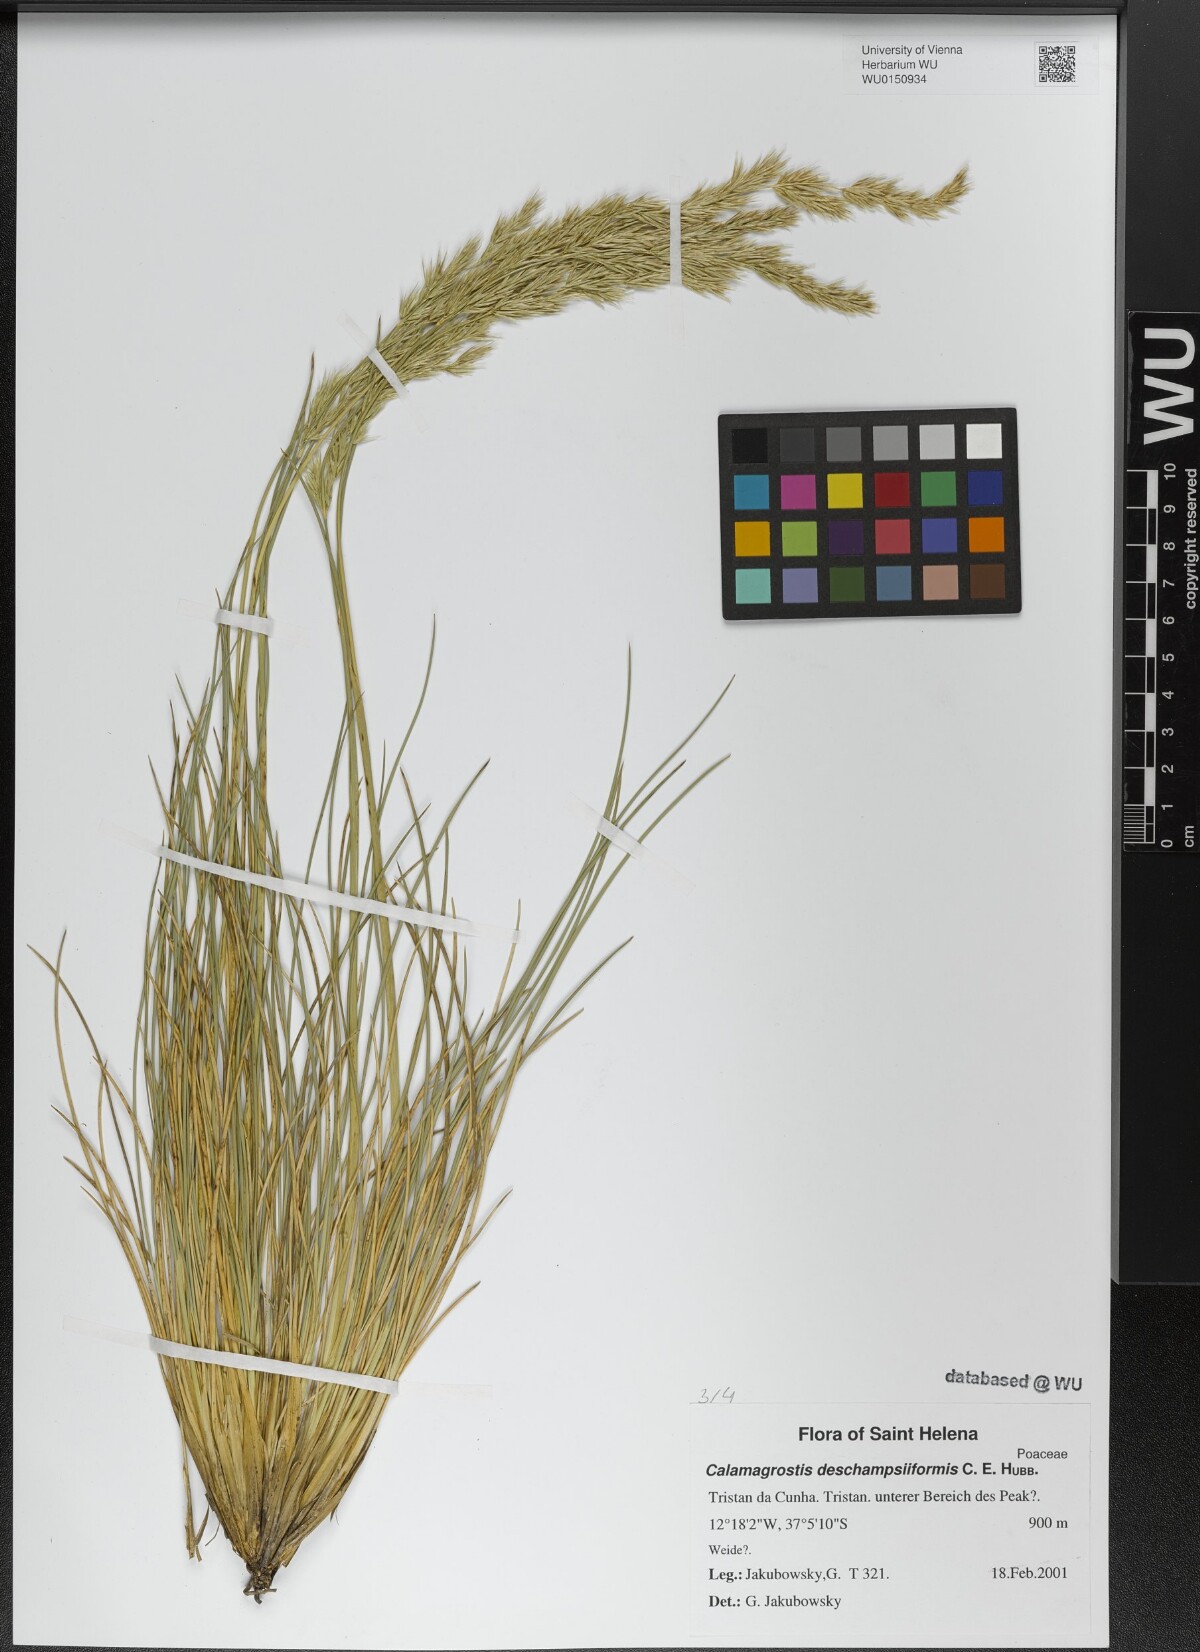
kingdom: Plantae
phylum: Tracheophyta
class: Liliopsida
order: Poales
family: Poaceae
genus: Calamagrostis
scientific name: Calamagrostis deschampsiiformis
